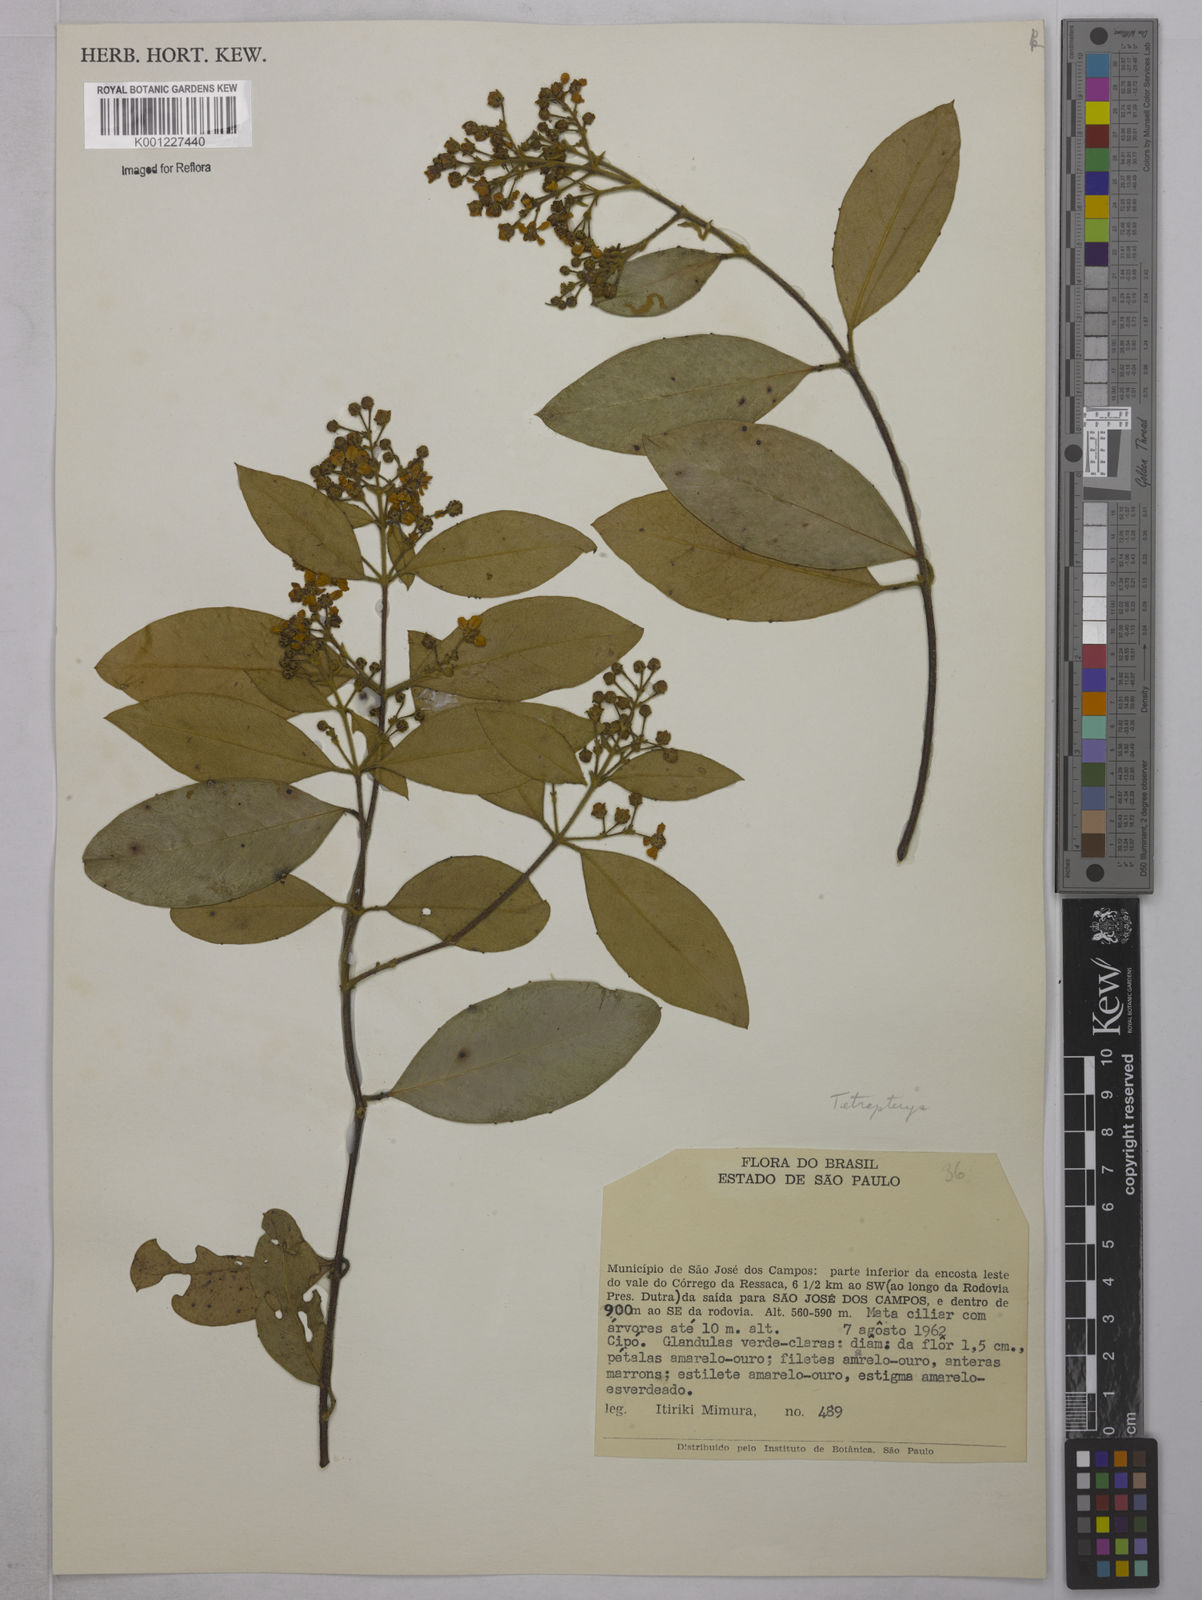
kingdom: Plantae
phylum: Tracheophyta
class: Magnoliopsida
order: Malpighiales
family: Malpighiaceae
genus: Tetrapterys
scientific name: Tetrapterys
